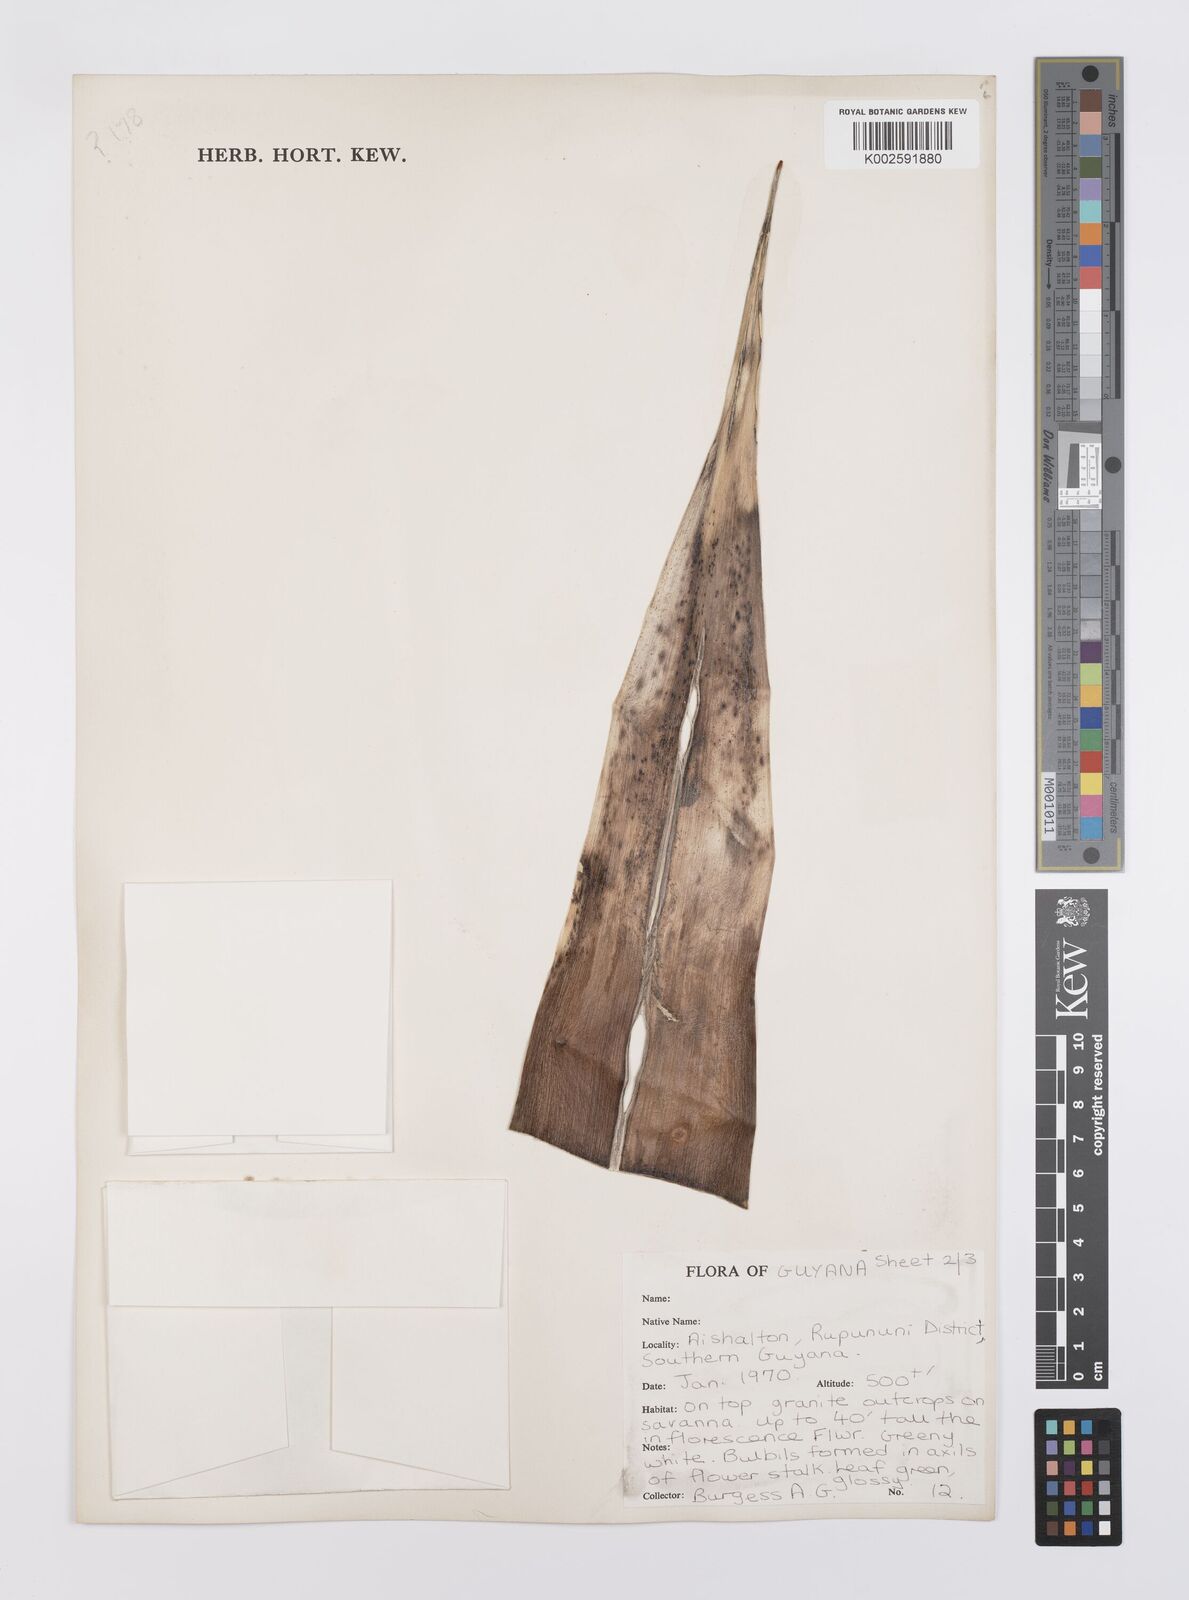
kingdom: Plantae
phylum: Tracheophyta
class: Liliopsida
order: Poales
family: Bromeliaceae
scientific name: Bromeliaceae
